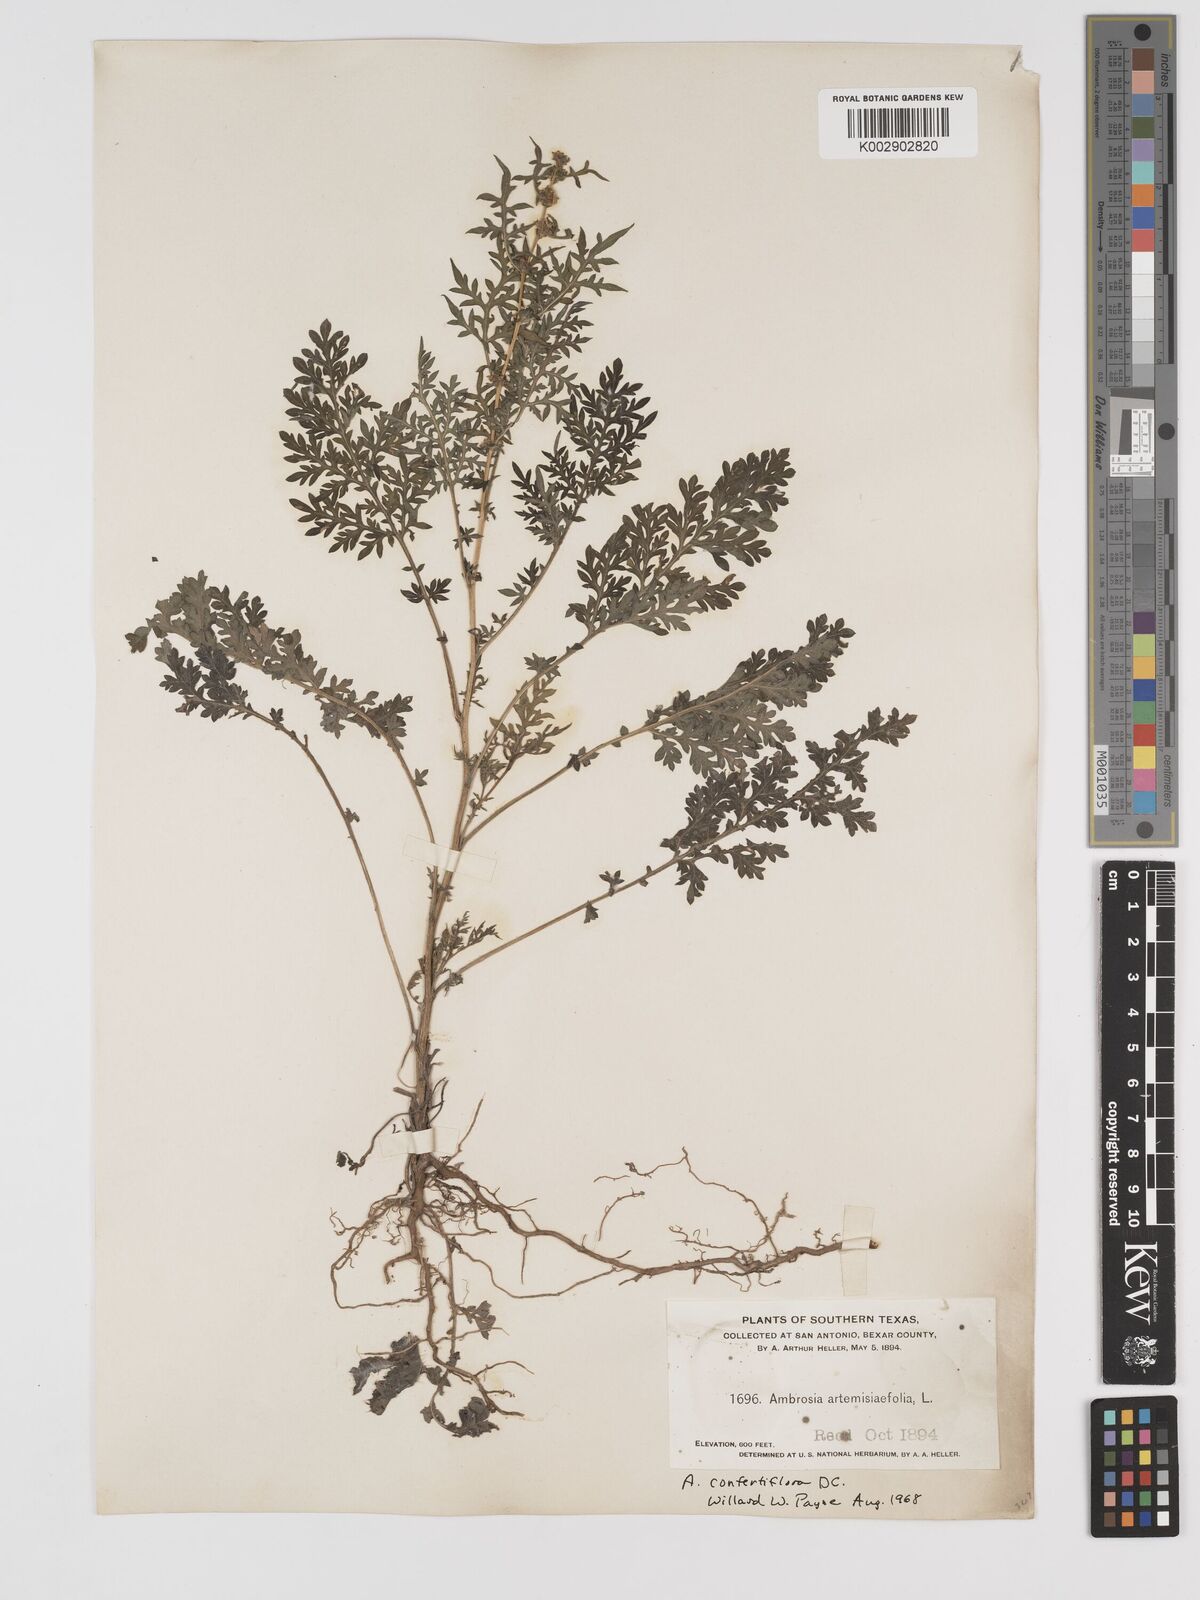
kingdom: Plantae
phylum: Tracheophyta
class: Magnoliopsida
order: Asterales
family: Asteraceae
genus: Ambrosia
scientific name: Ambrosia artemisiifolia
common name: Annual ragweed
